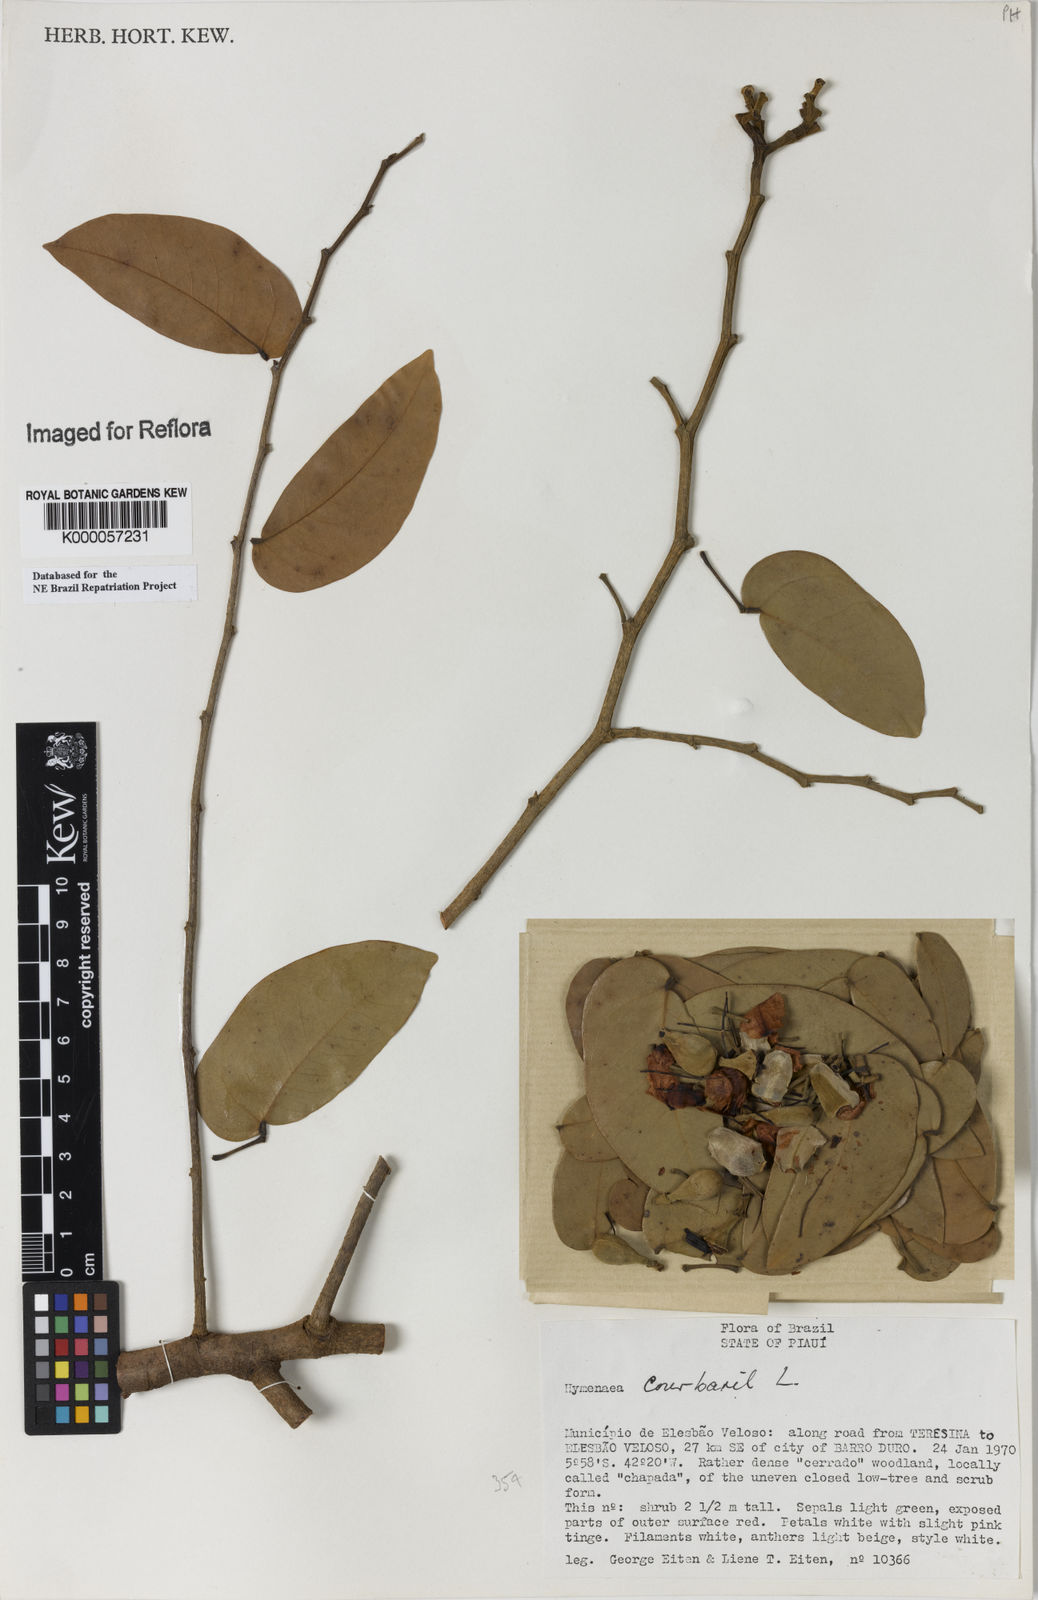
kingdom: Plantae
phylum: Tracheophyta
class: Magnoliopsida
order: Fabales
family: Fabaceae
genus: Hymenaea
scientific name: Hymenaea courbaril
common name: Brazilian copal
